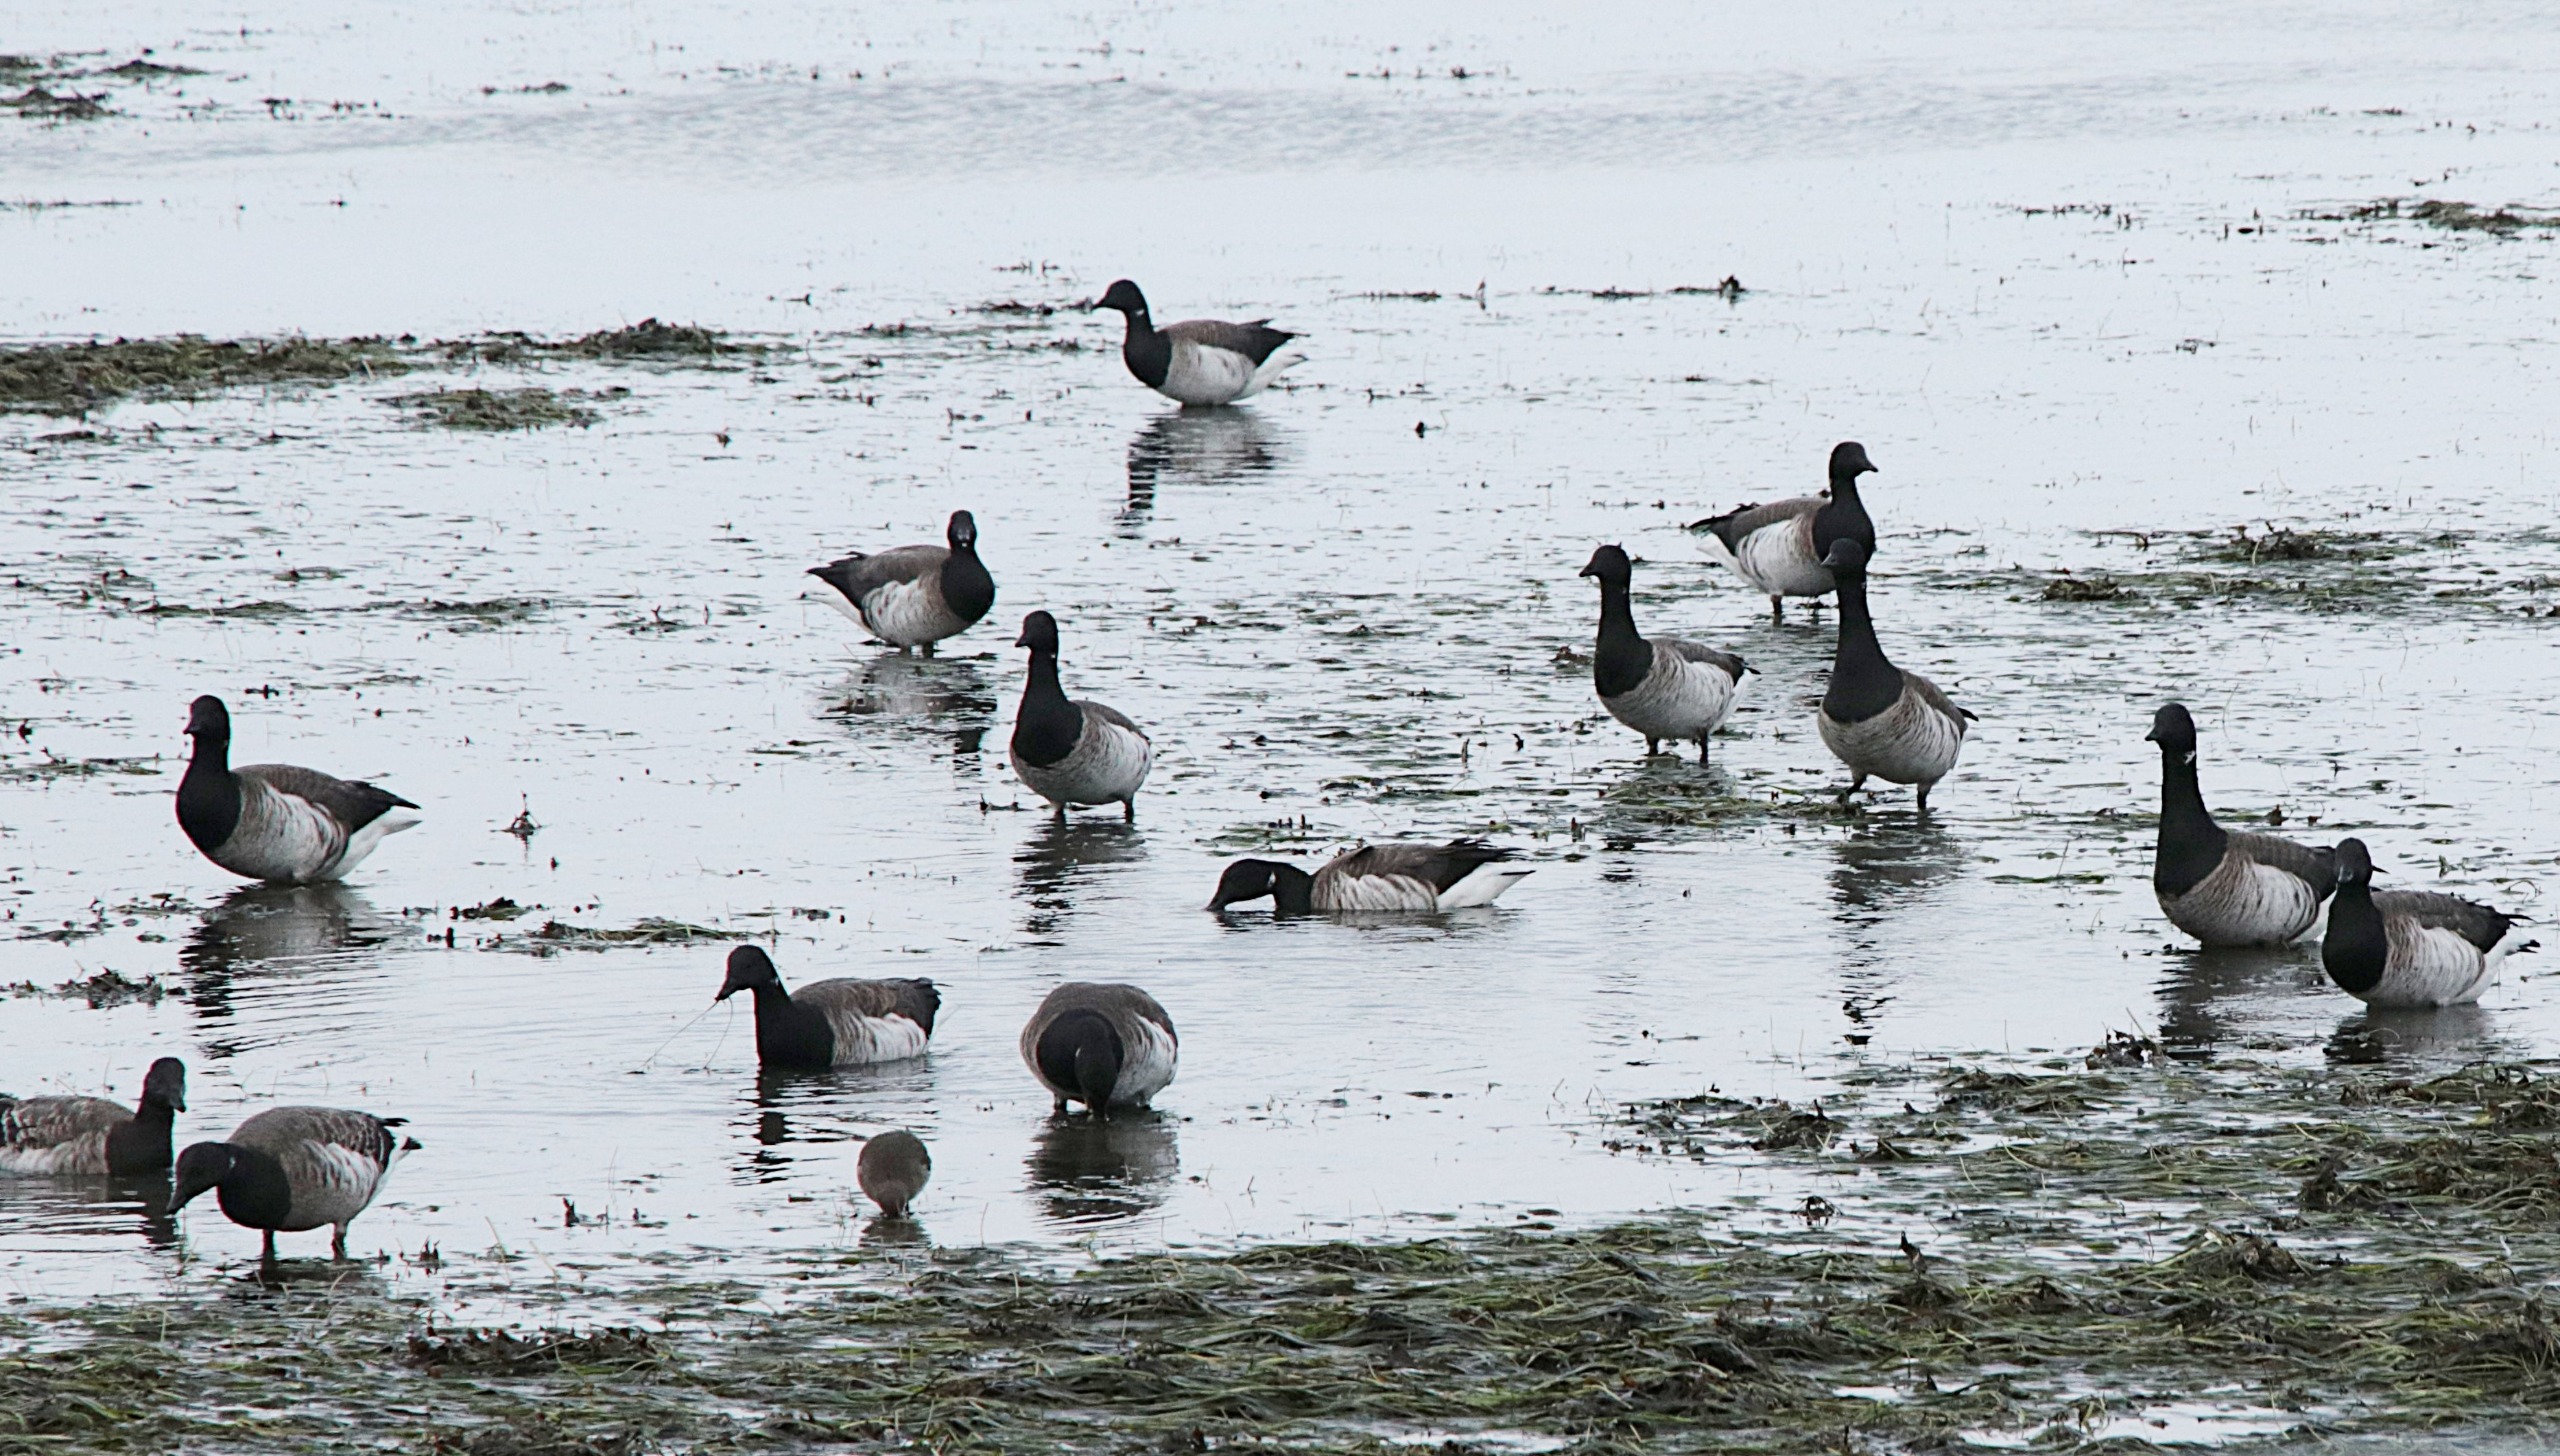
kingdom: Animalia
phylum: Chordata
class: Aves
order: Anseriformes
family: Anatidae
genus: Branta
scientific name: Branta bernicla
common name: Lysbuget knortegås
